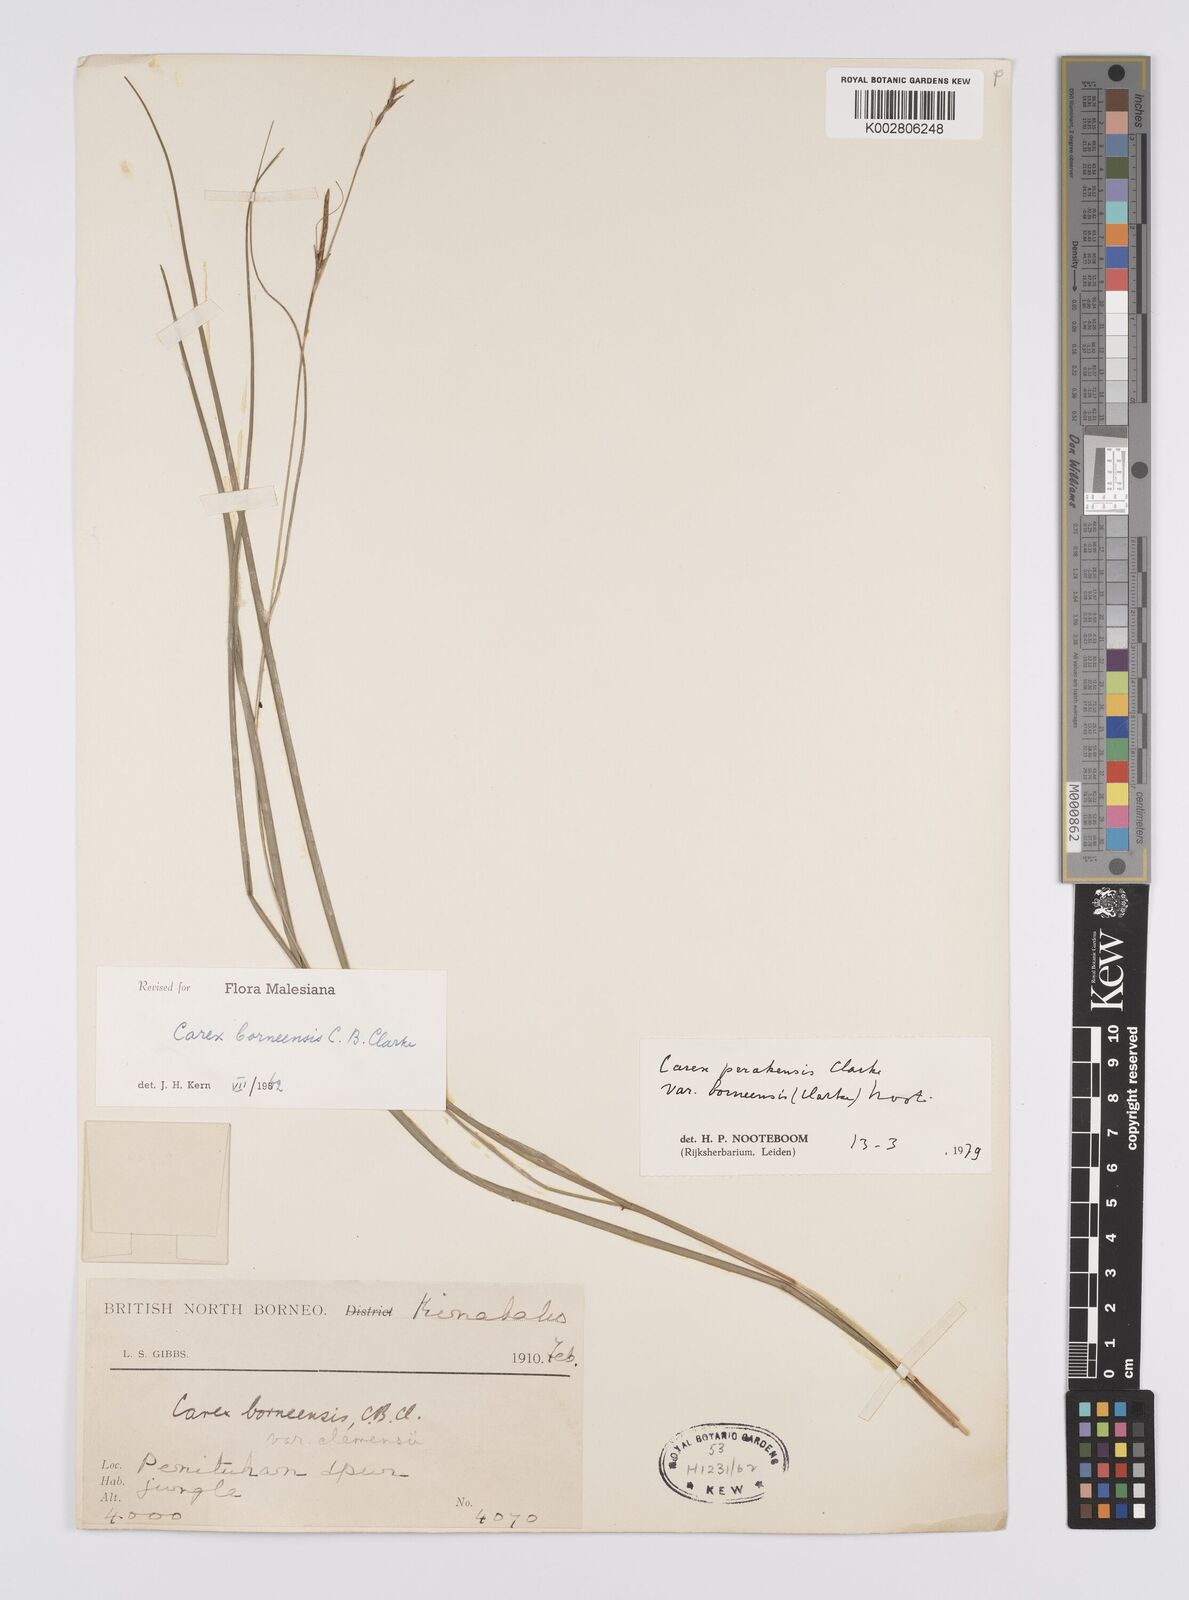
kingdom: Plantae
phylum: Tracheophyta
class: Liliopsida
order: Poales
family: Cyperaceae
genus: Carex
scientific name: Carex perakensis
